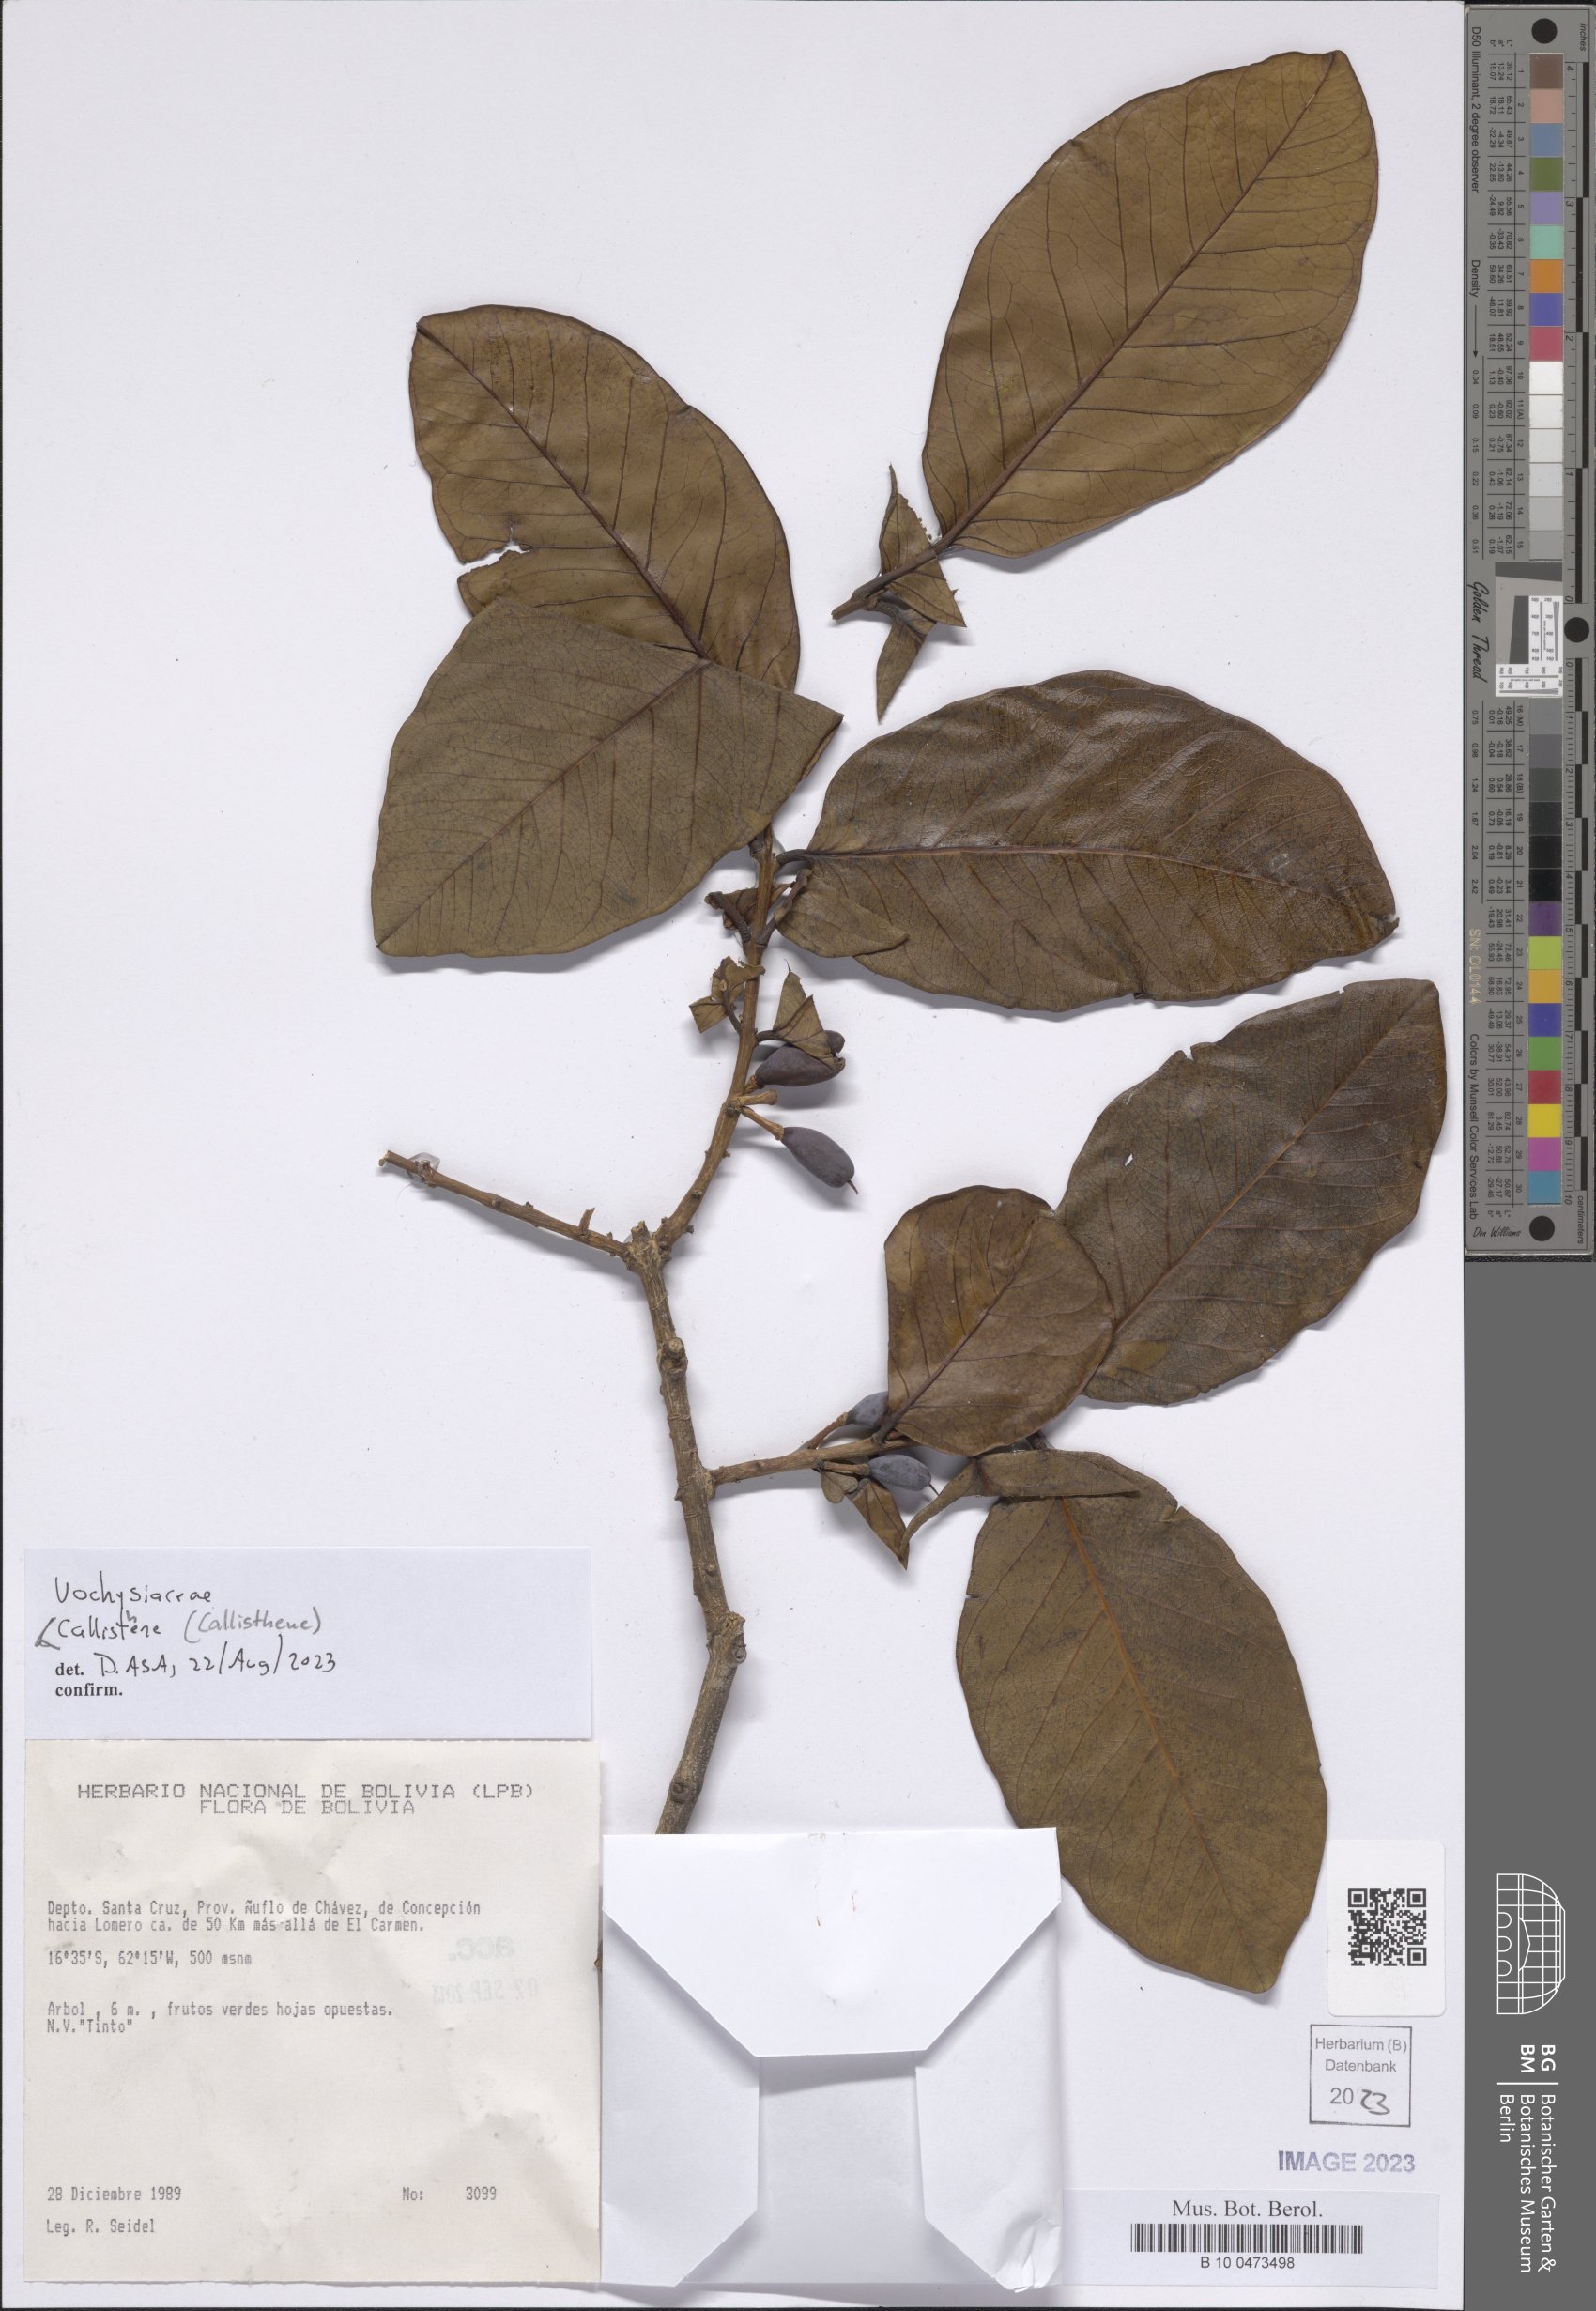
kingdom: Plantae
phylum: Tracheophyta
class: Magnoliopsida
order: Myrtales
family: Vochysiaceae
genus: Callisthene
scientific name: Callisthene
